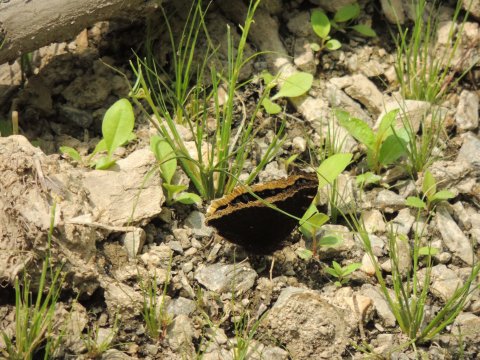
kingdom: Animalia
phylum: Arthropoda
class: Insecta
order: Lepidoptera
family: Nymphalidae
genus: Nymphalis
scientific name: Nymphalis antiopa
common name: Mourning Cloak
